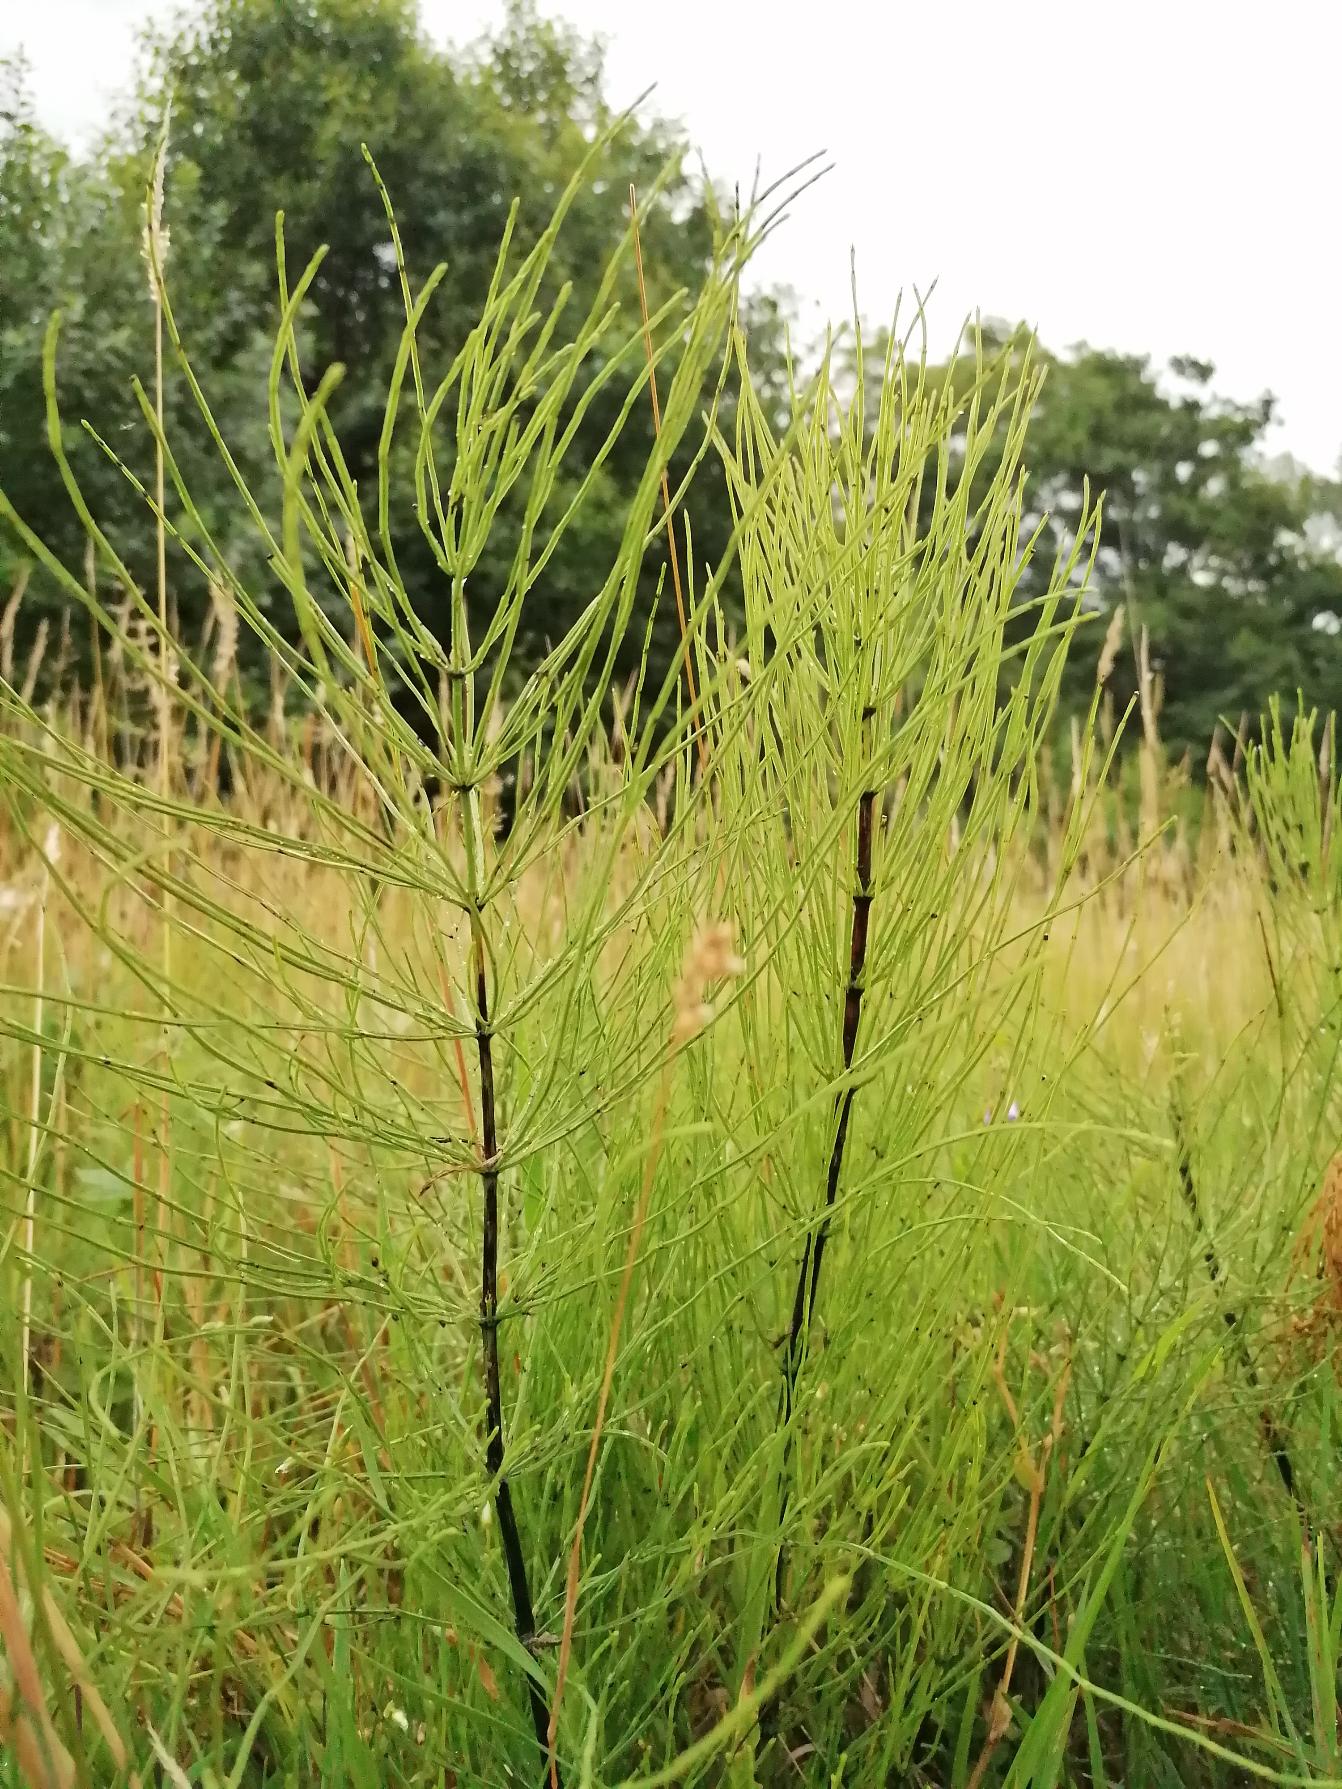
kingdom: Plantae
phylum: Tracheophyta
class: Polypodiopsida
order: Equisetales
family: Equisetaceae
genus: Equisetum
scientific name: Equisetum arvense
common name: Ager-padderok
